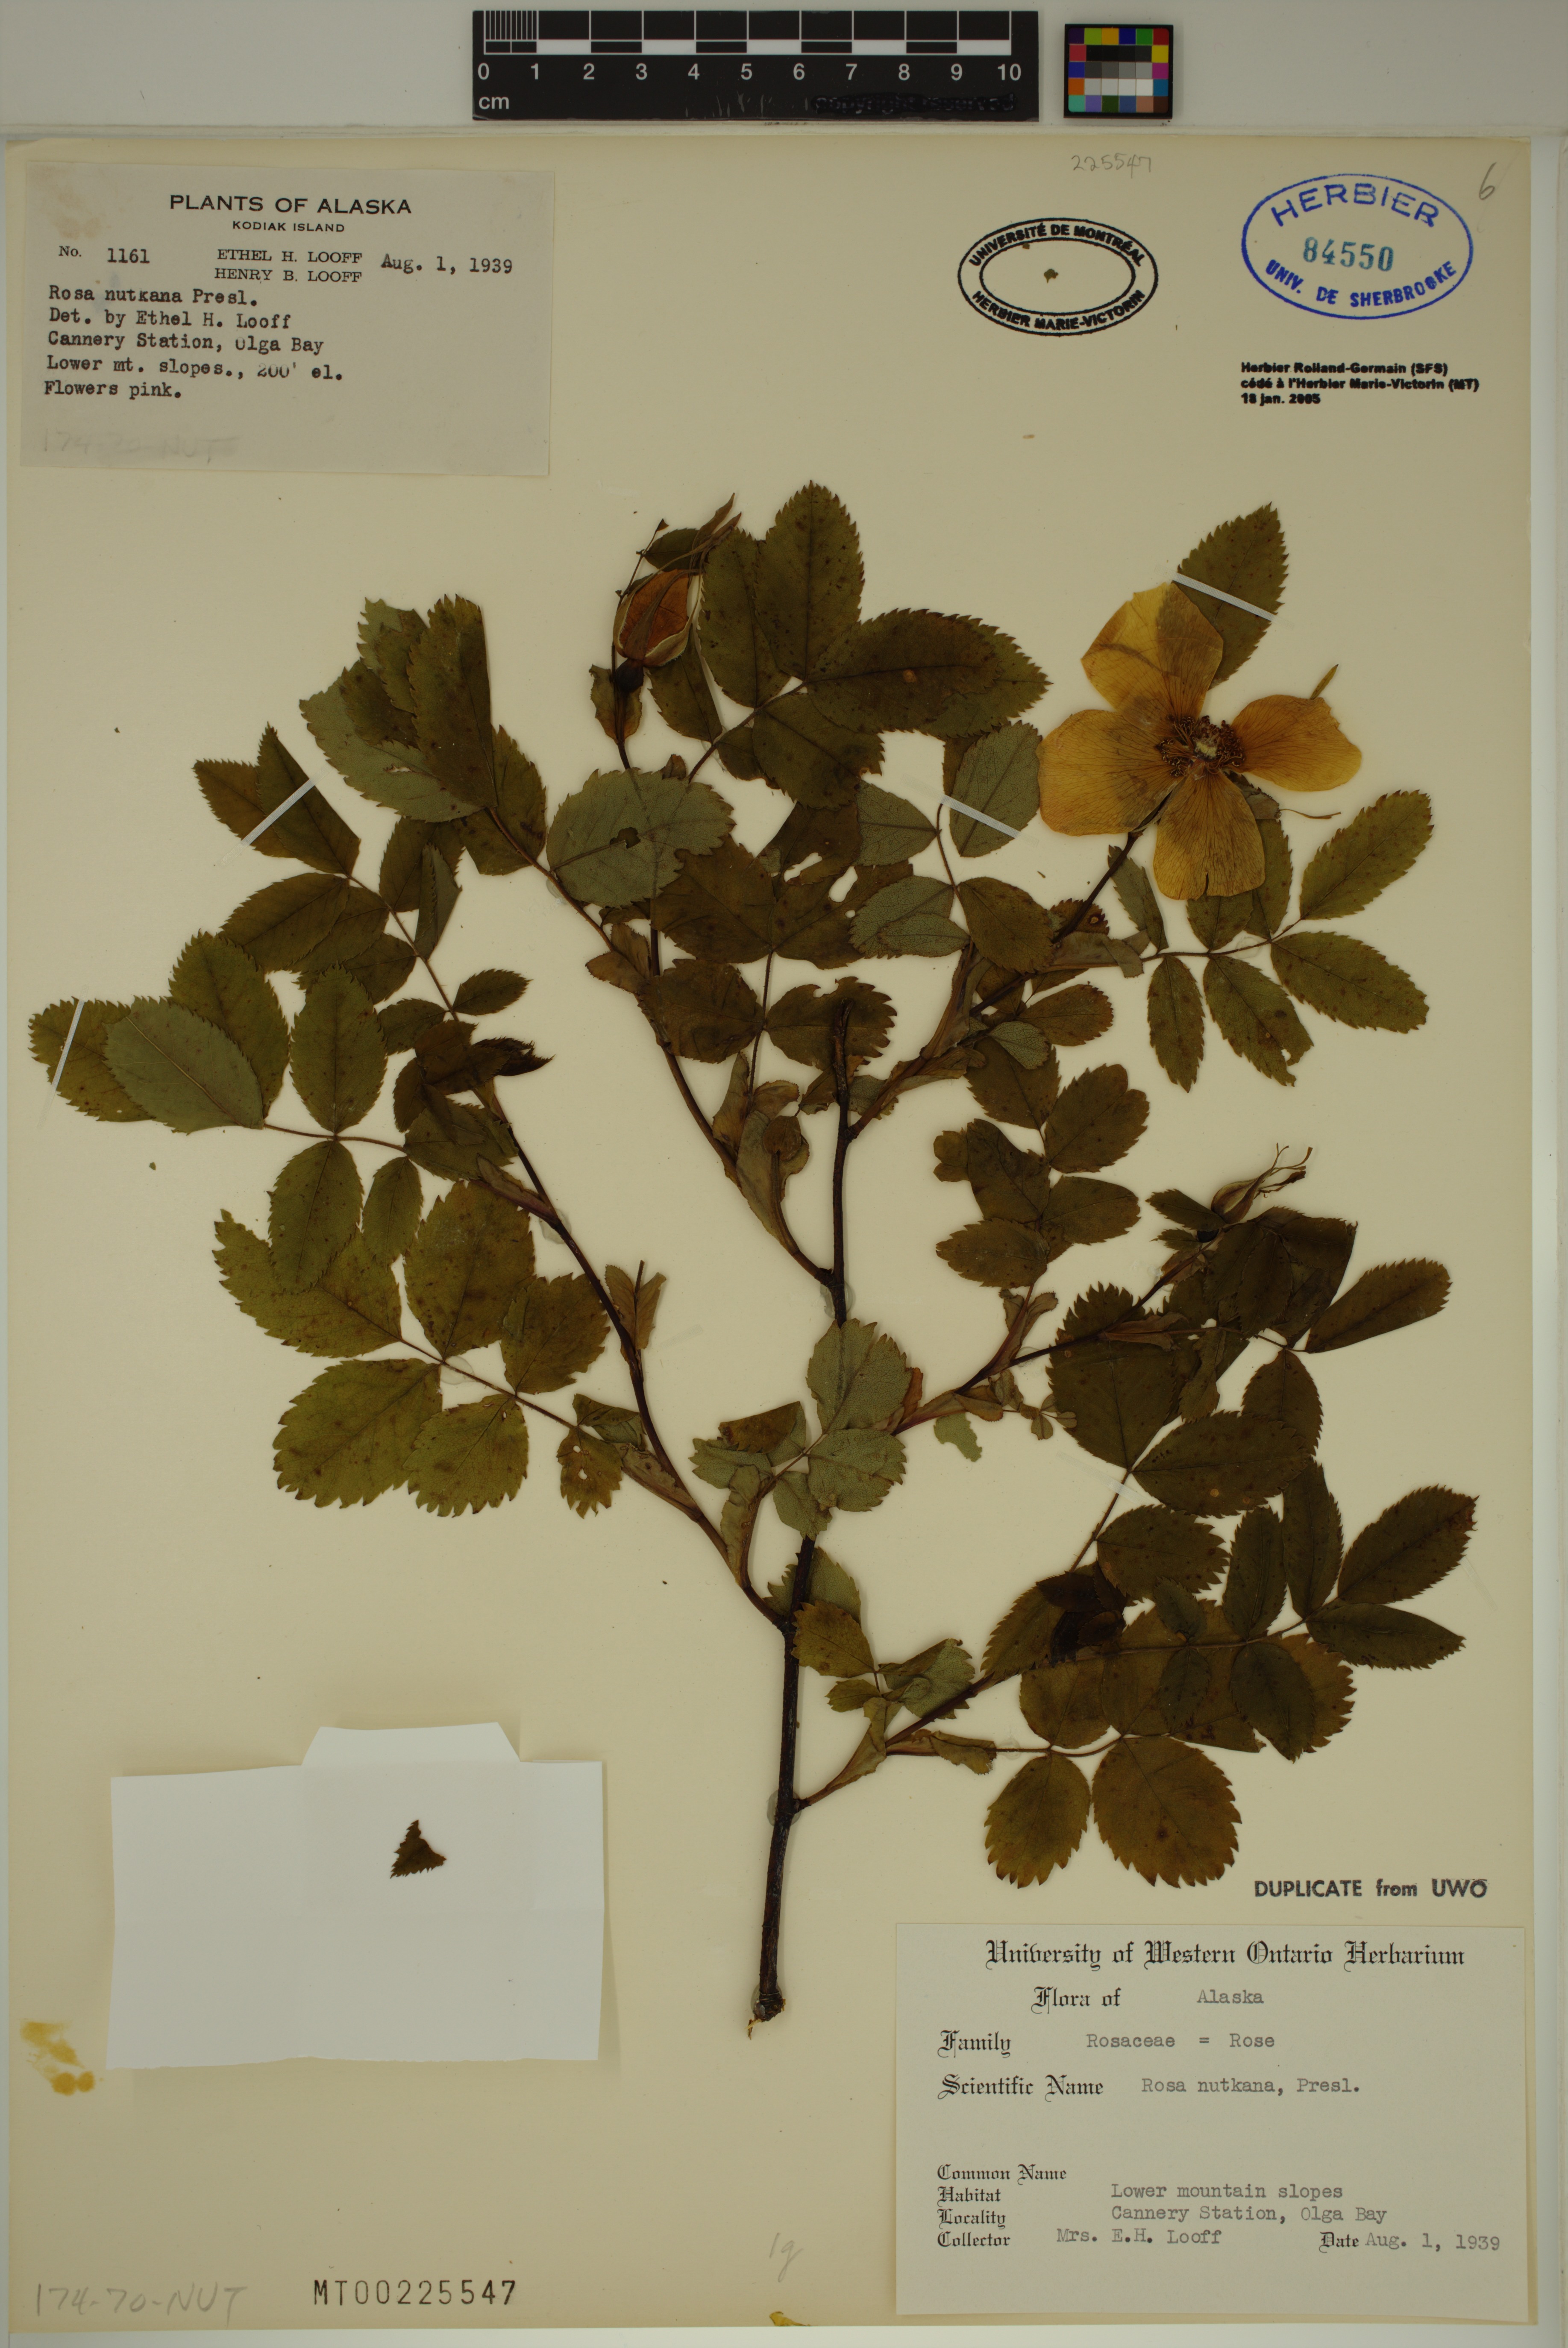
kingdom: Plantae
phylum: Tracheophyta
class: Magnoliopsida
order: Rosales
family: Rosaceae
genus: Rosa
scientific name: Rosa nutkana
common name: Nootka rose
